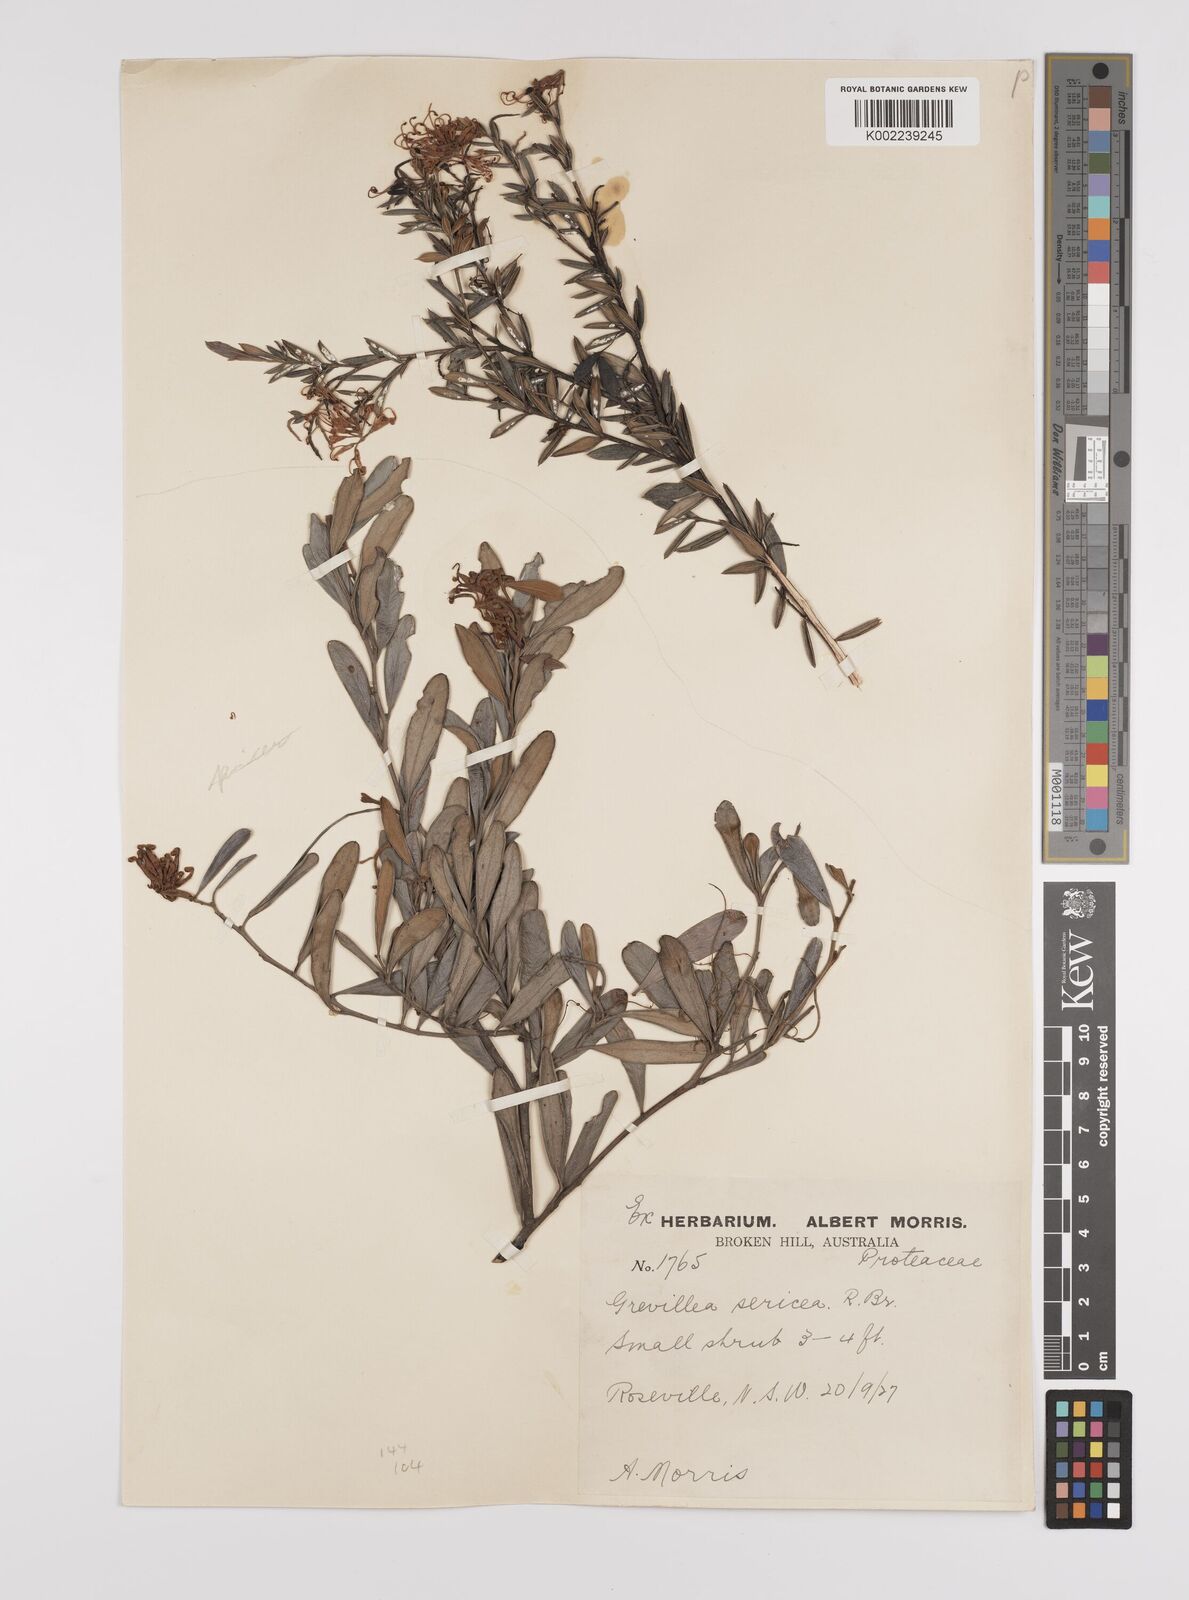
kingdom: Plantae
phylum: Tracheophyta
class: Magnoliopsida
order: Proteales
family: Proteaceae
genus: Grevillea
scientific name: Grevillea sericea
